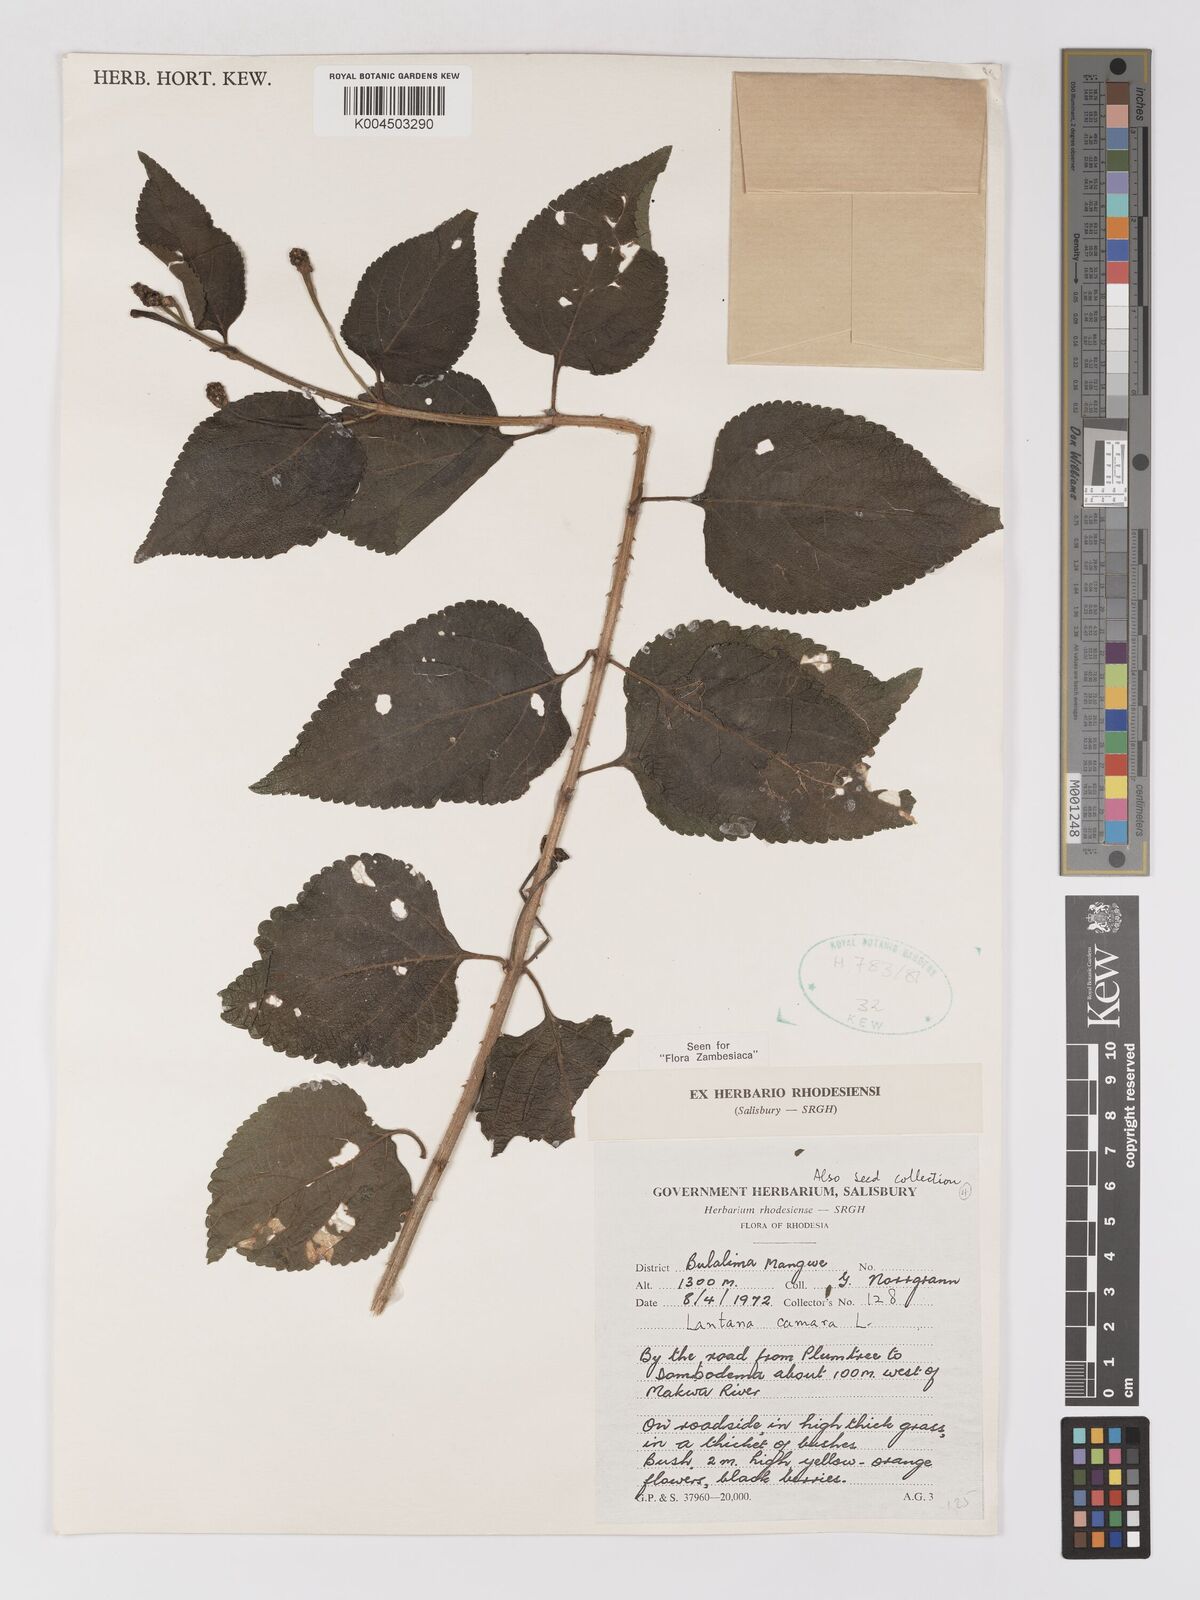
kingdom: Plantae
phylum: Tracheophyta
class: Magnoliopsida
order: Lamiales
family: Verbenaceae
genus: Lantana
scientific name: Lantana camara
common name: Lantana
